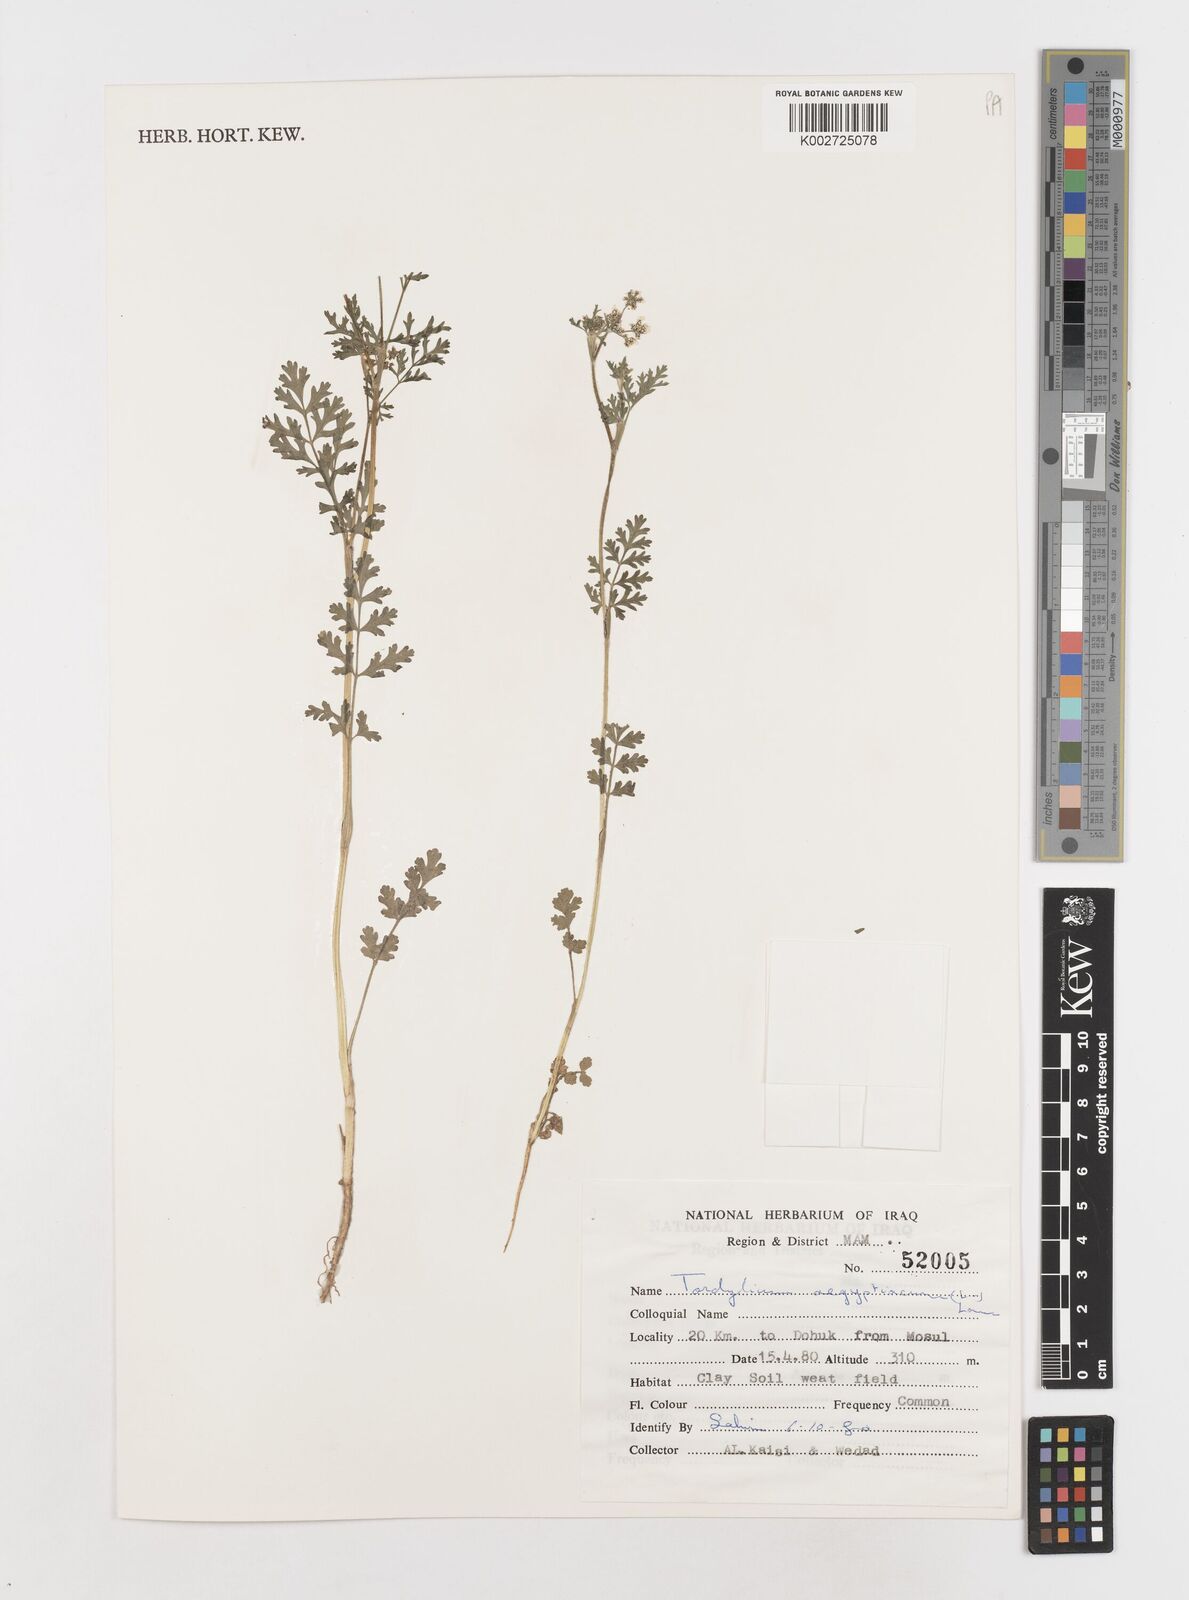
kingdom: Plantae
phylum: Tracheophyta
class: Magnoliopsida
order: Apiales
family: Apiaceae
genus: Tordylium
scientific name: Tordylium aegyptiacum
